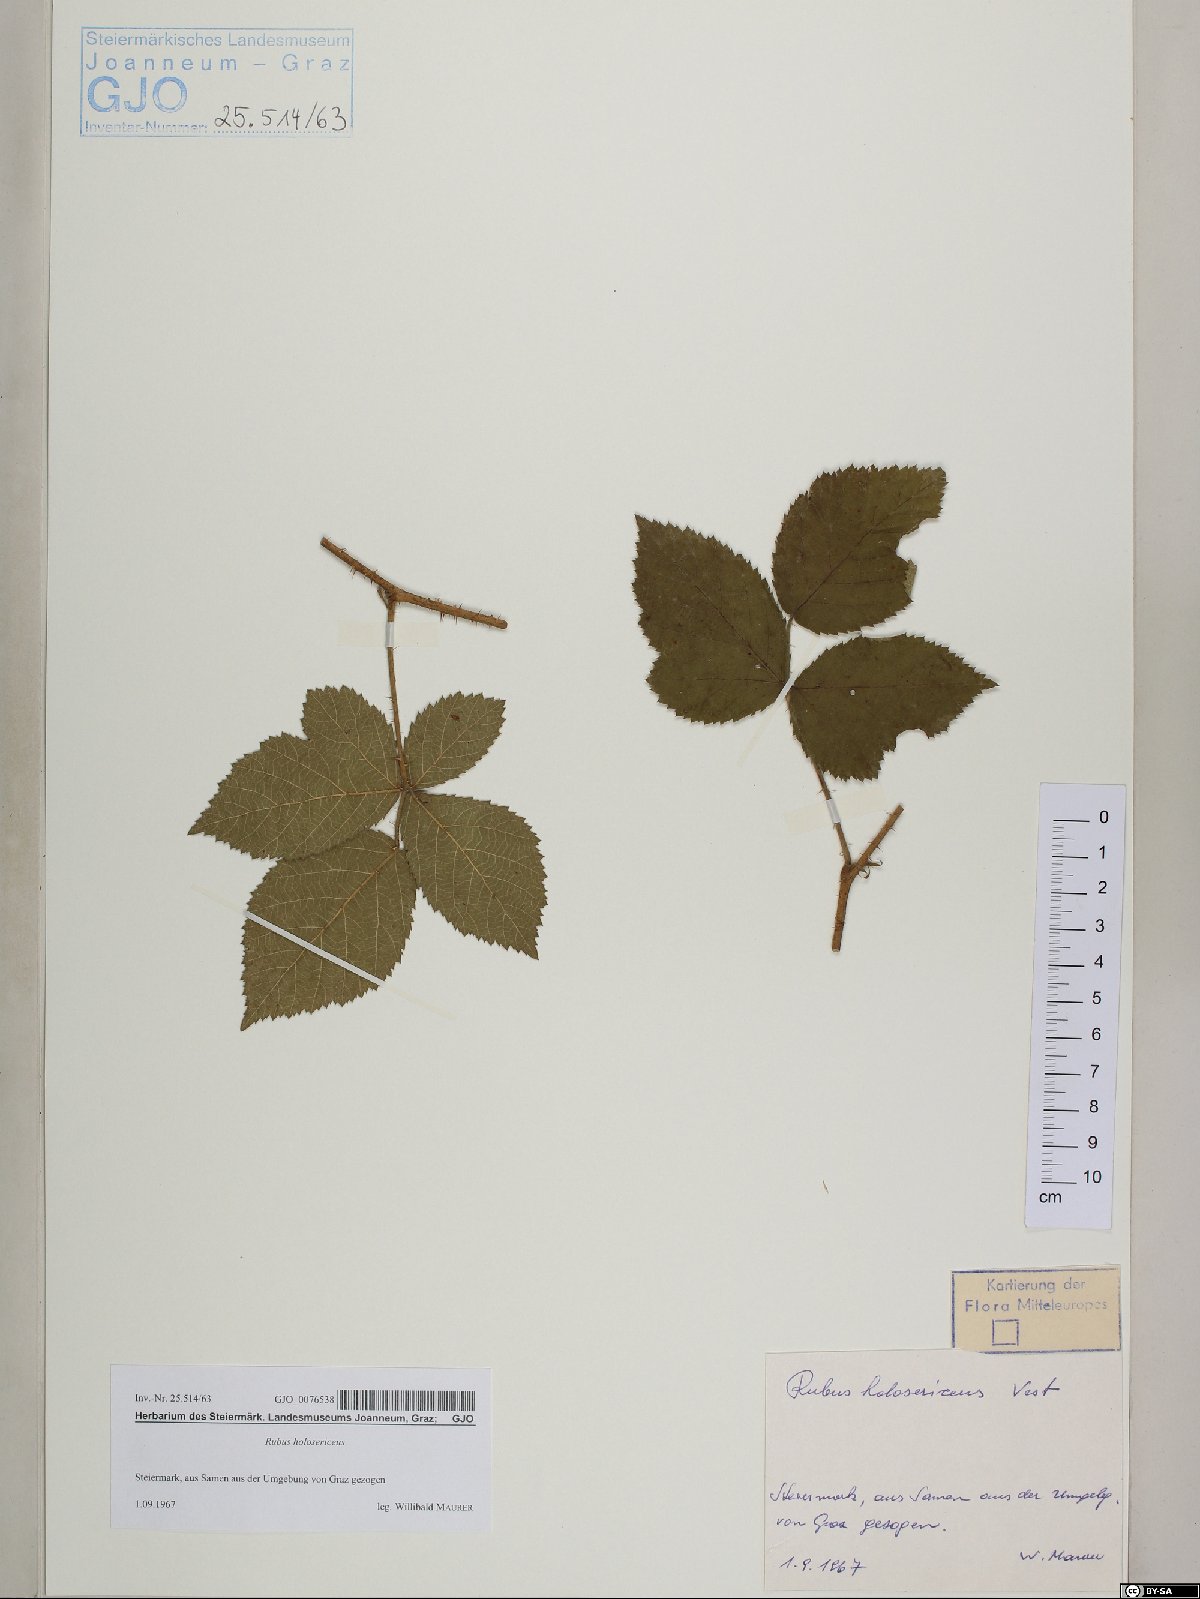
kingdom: Plantae
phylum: Tracheophyta
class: Magnoliopsida
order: Rosales
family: Rosaceae
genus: Rubus
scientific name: Rubus holosericeus
